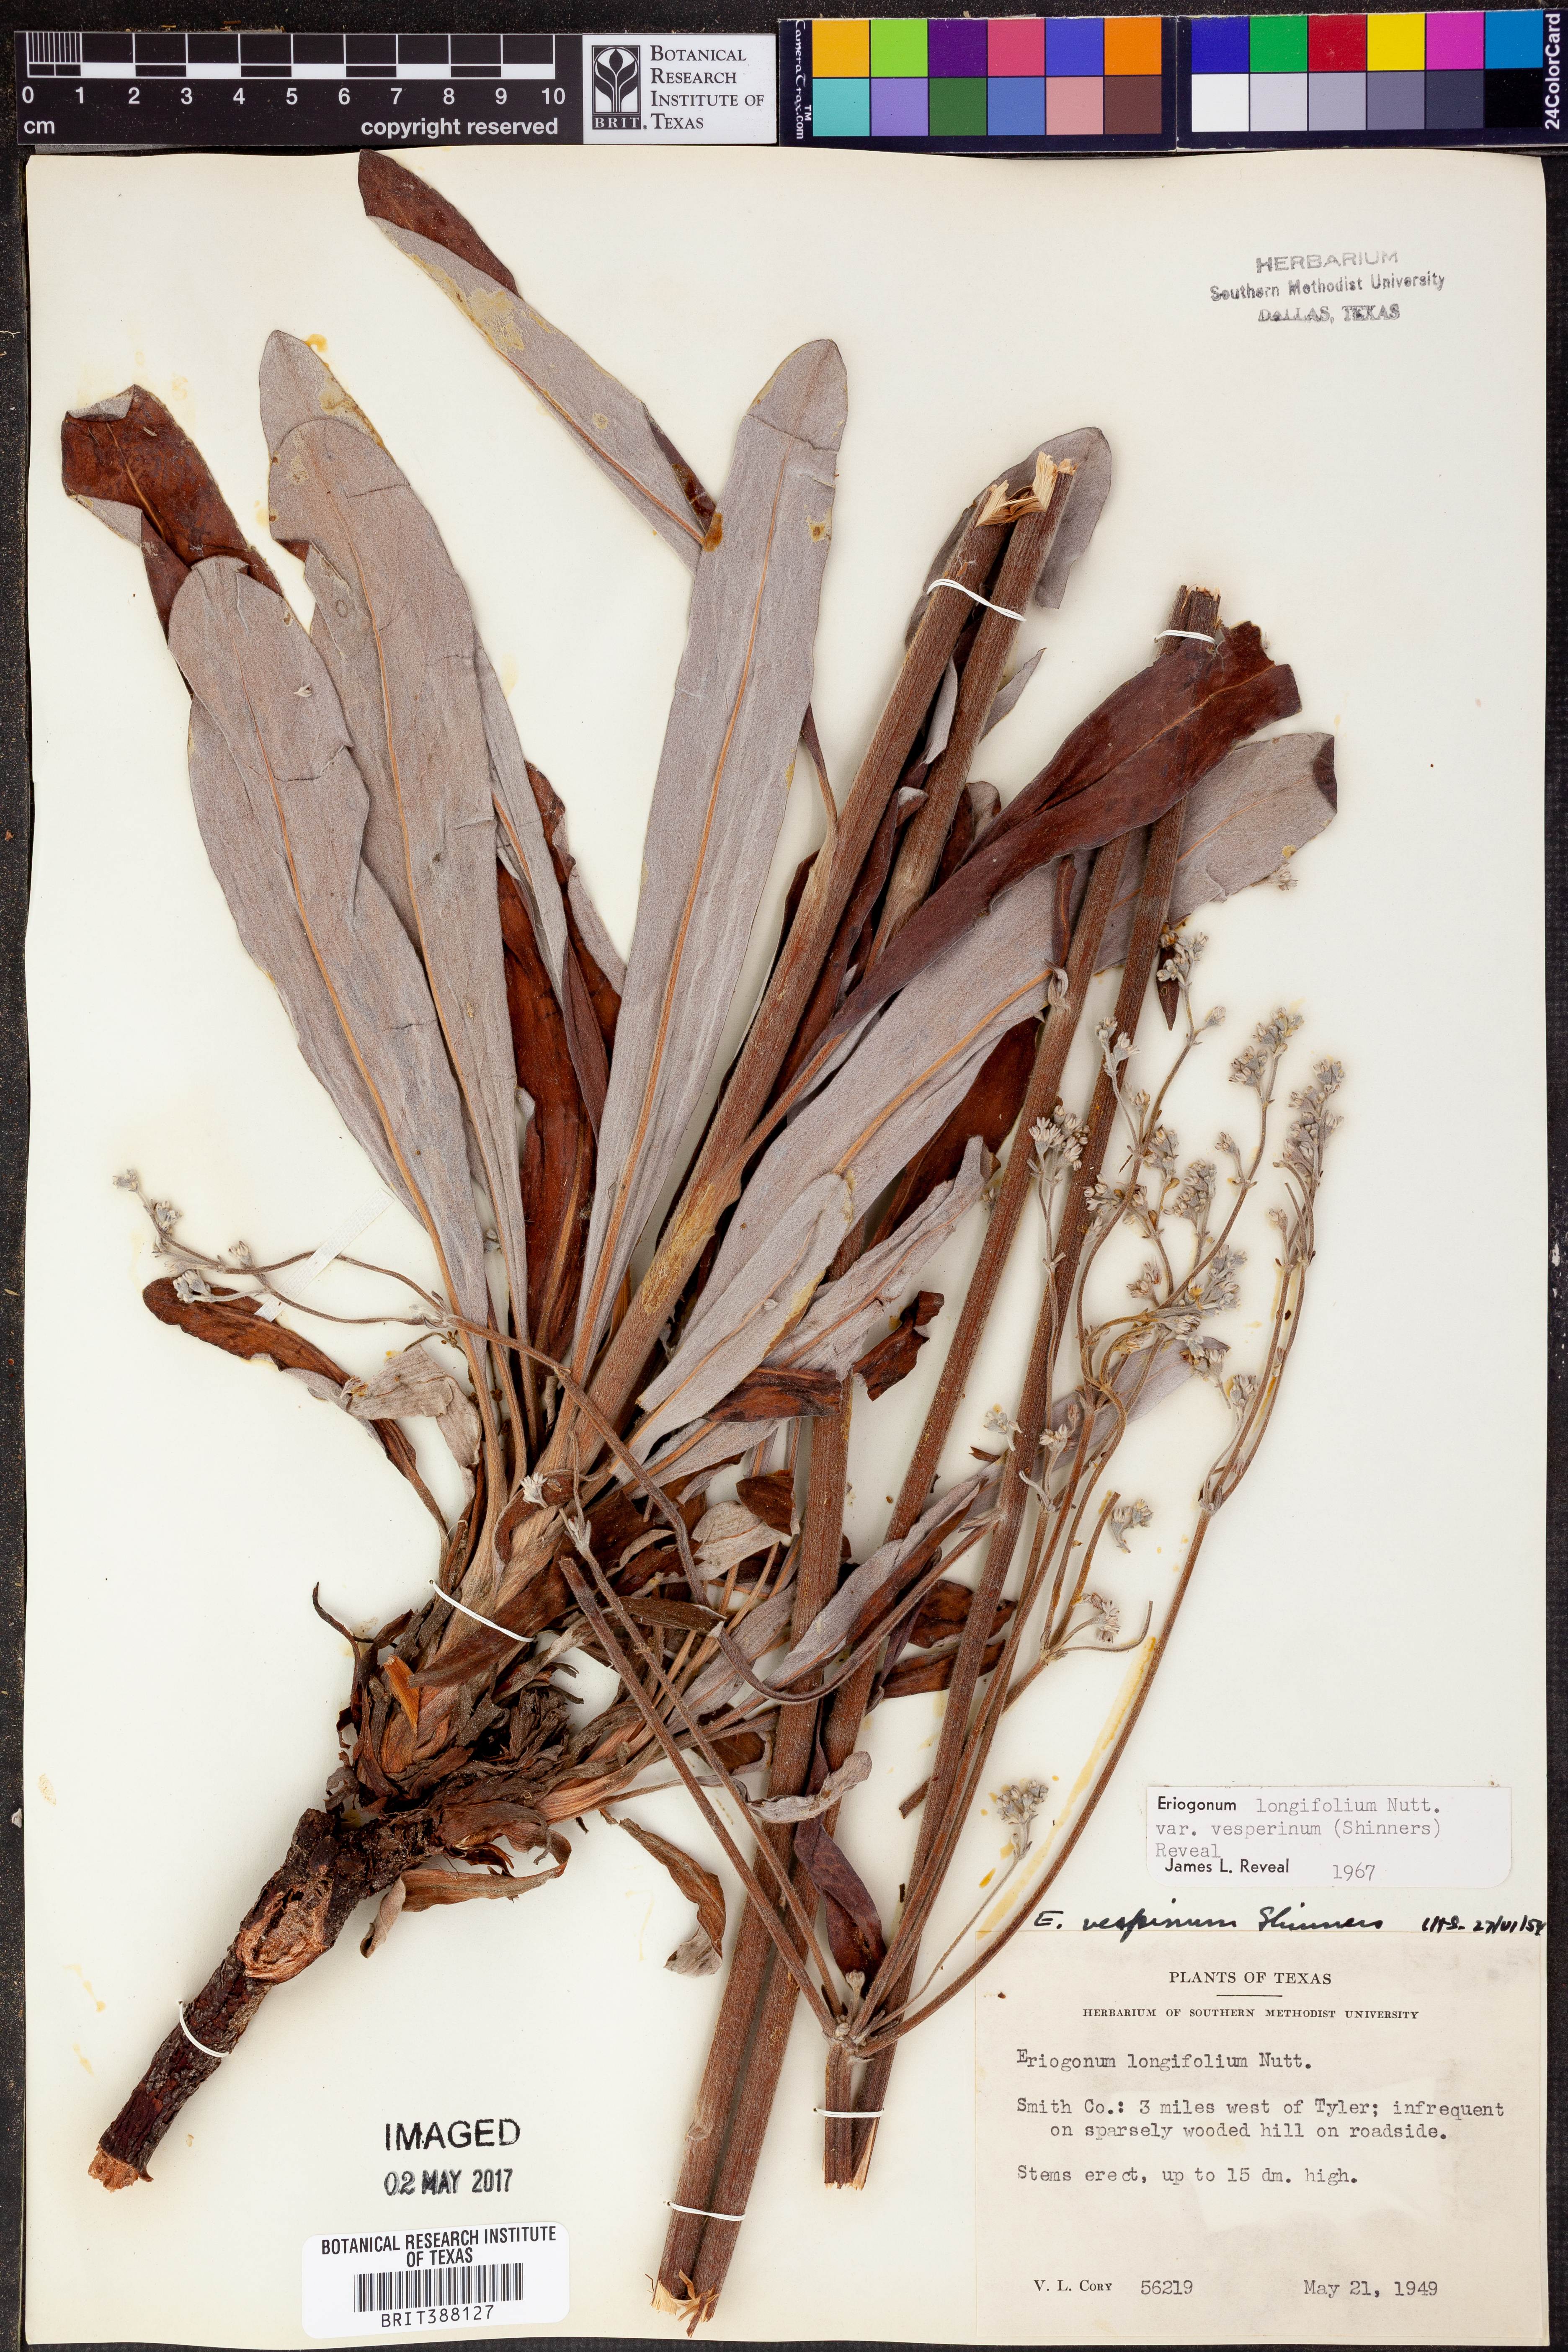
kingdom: Plantae
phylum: Tracheophyta
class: Magnoliopsida
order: Caryophyllales
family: Polygonaceae
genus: Eriogonum
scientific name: Eriogonum longifolium
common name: Longleaf wild buckwheat
